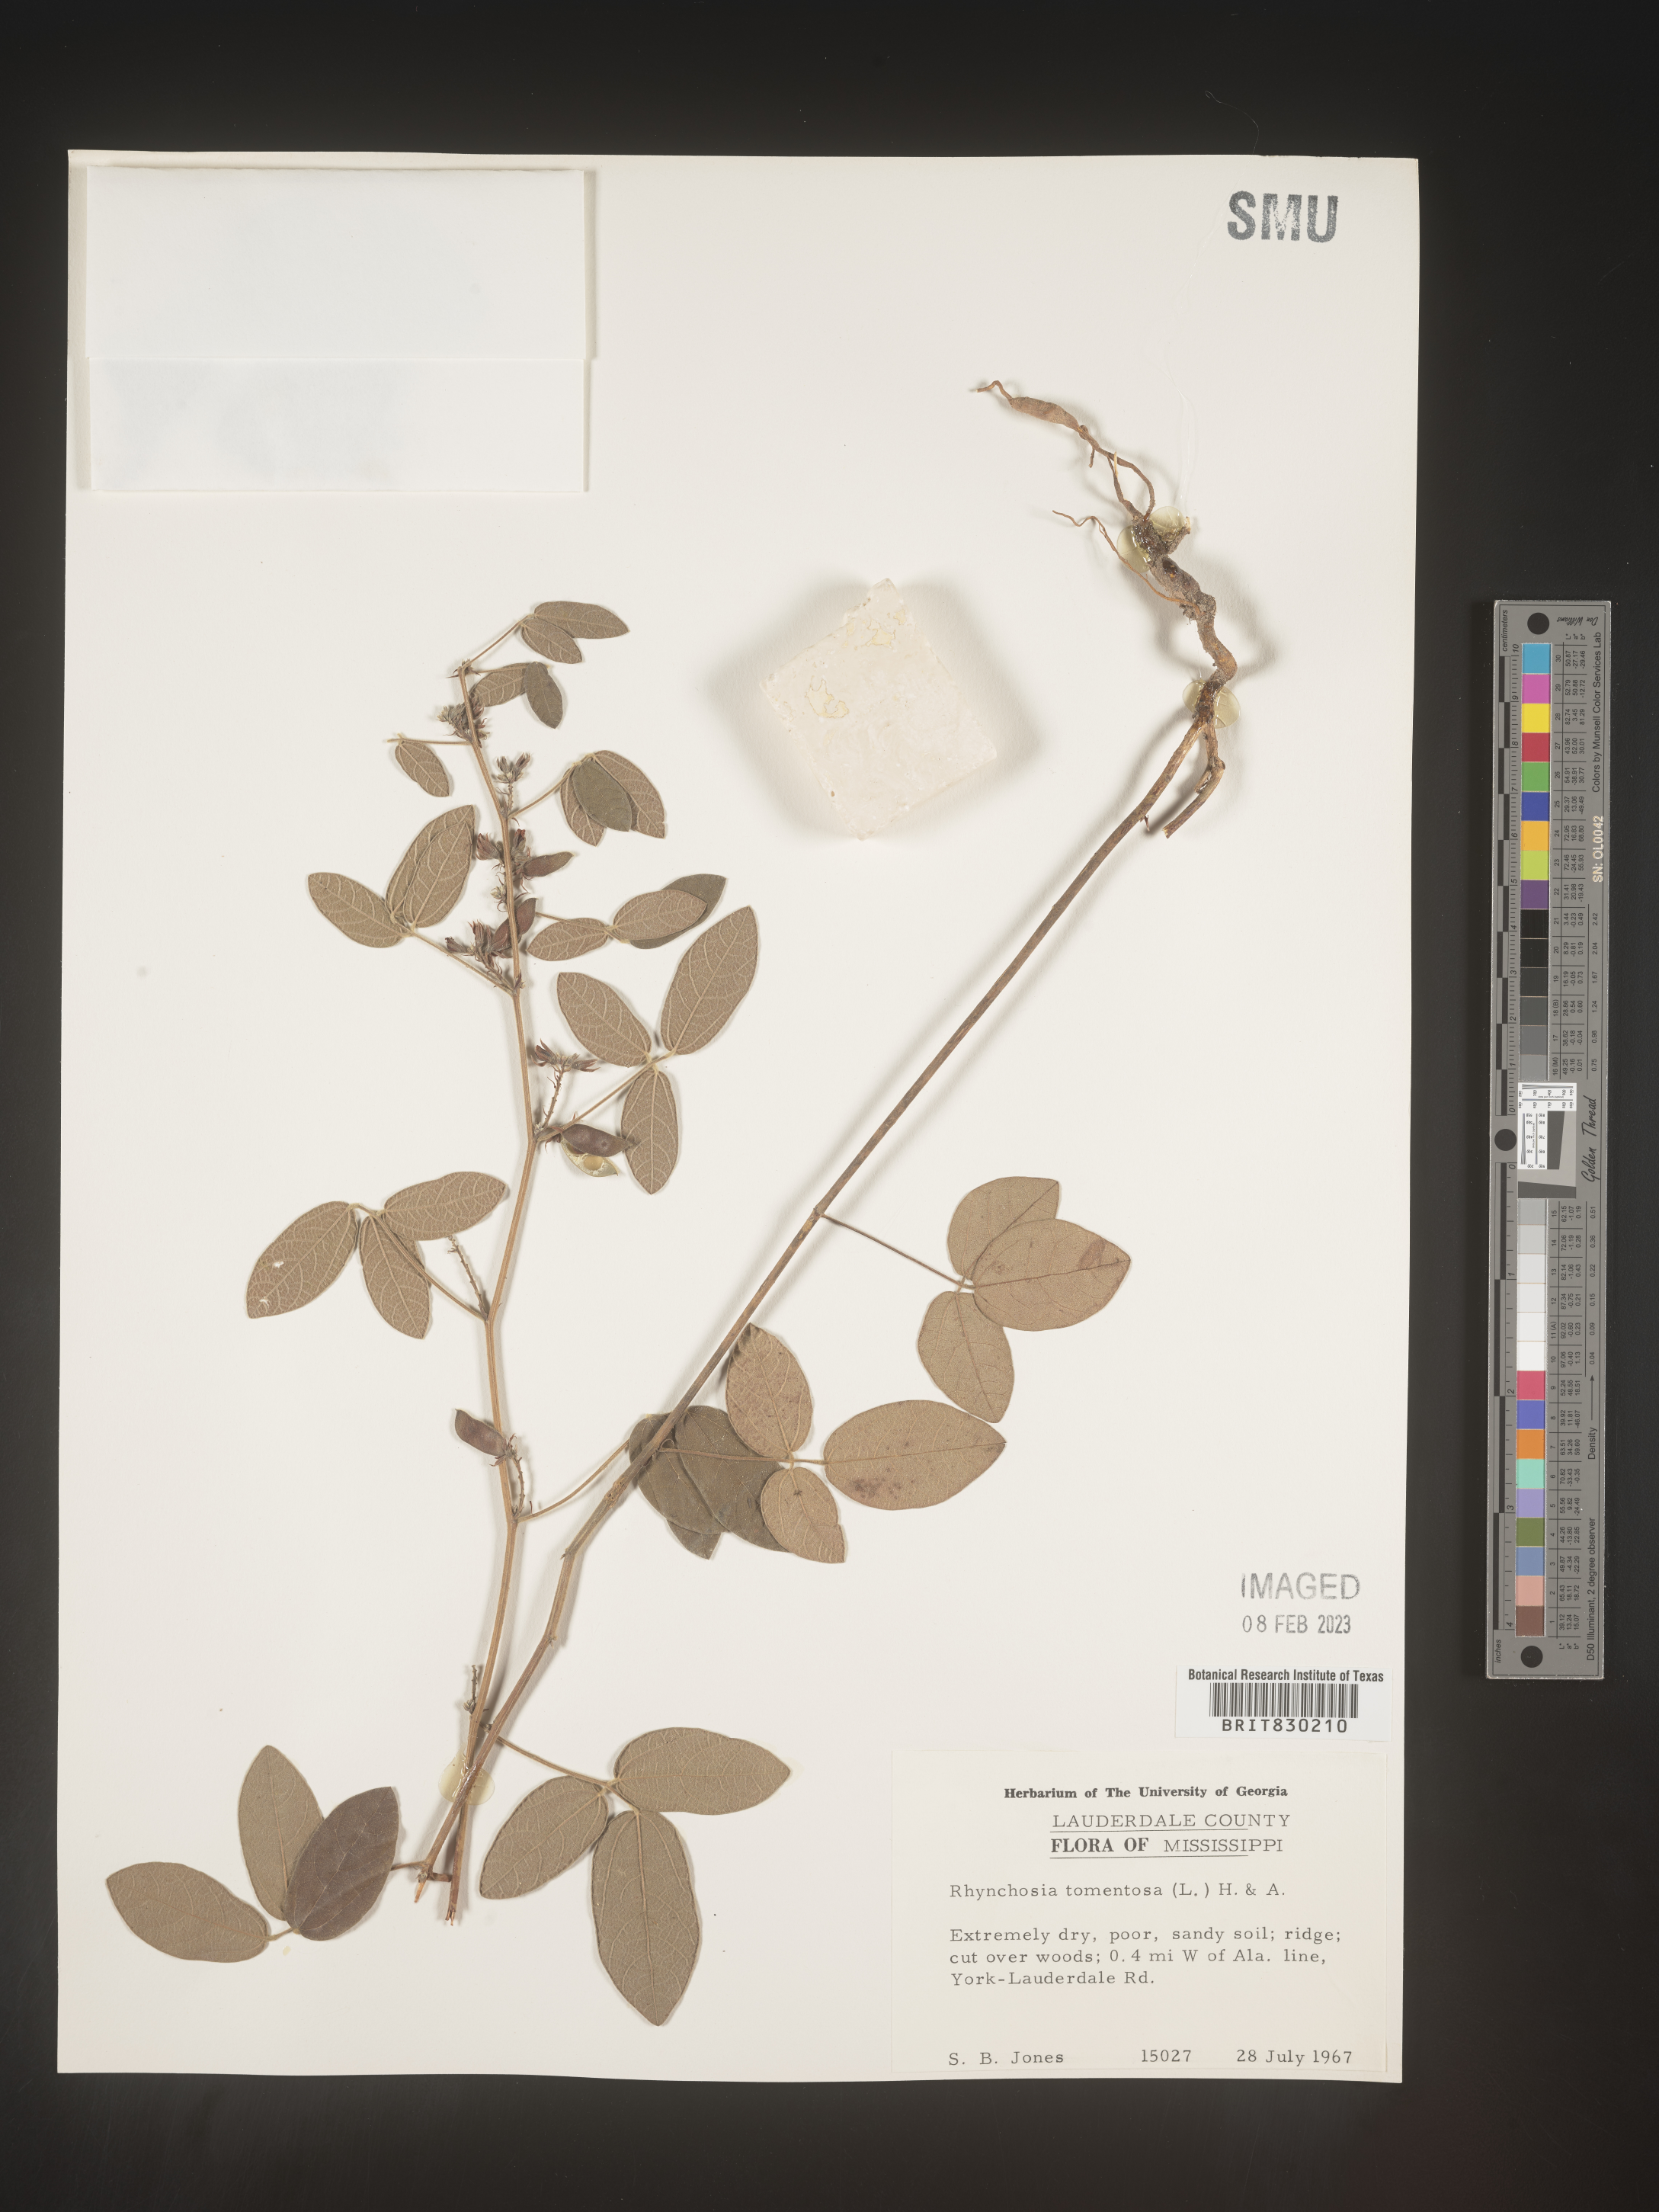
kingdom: Plantae
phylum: Tracheophyta
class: Magnoliopsida
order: Fabales
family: Fabaceae
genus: Rhynchosia
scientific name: Rhynchosia rothii
